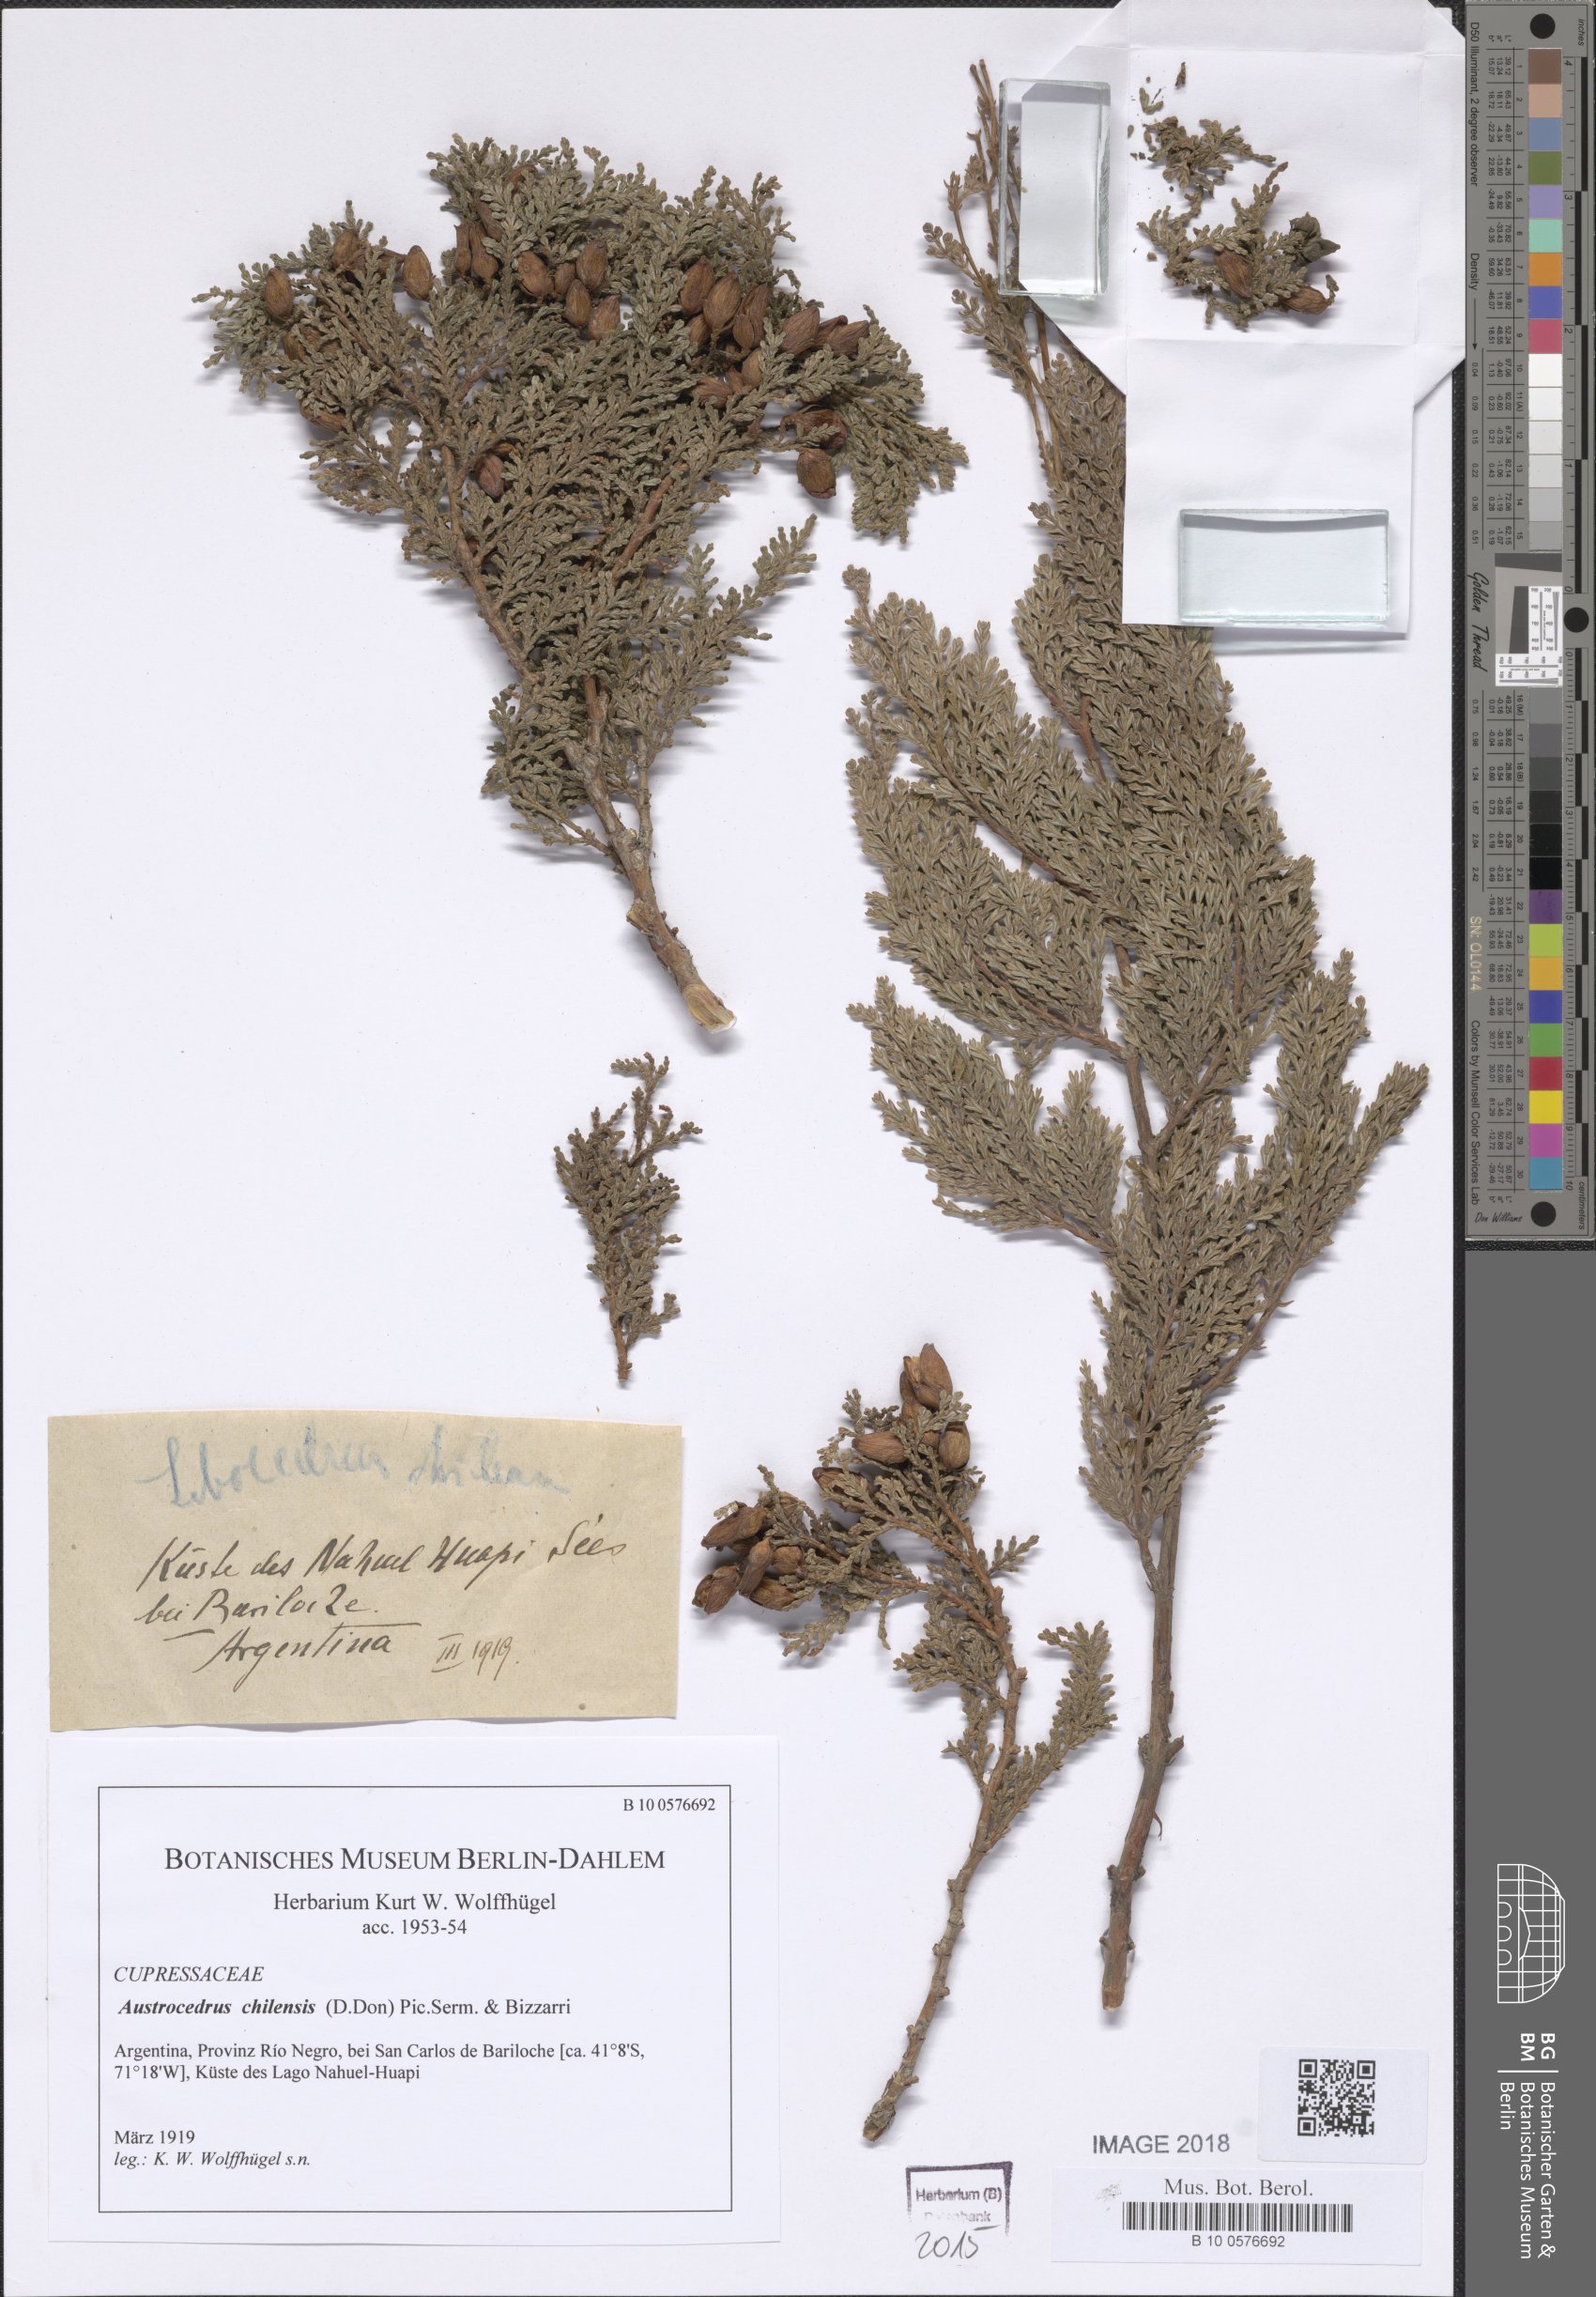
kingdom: Plantae
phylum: Tracheophyta
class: Pinopsida
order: Pinales
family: Cupressaceae
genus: Austrocedrus
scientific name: Austrocedrus chilensis
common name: Chilean incense-cedar
